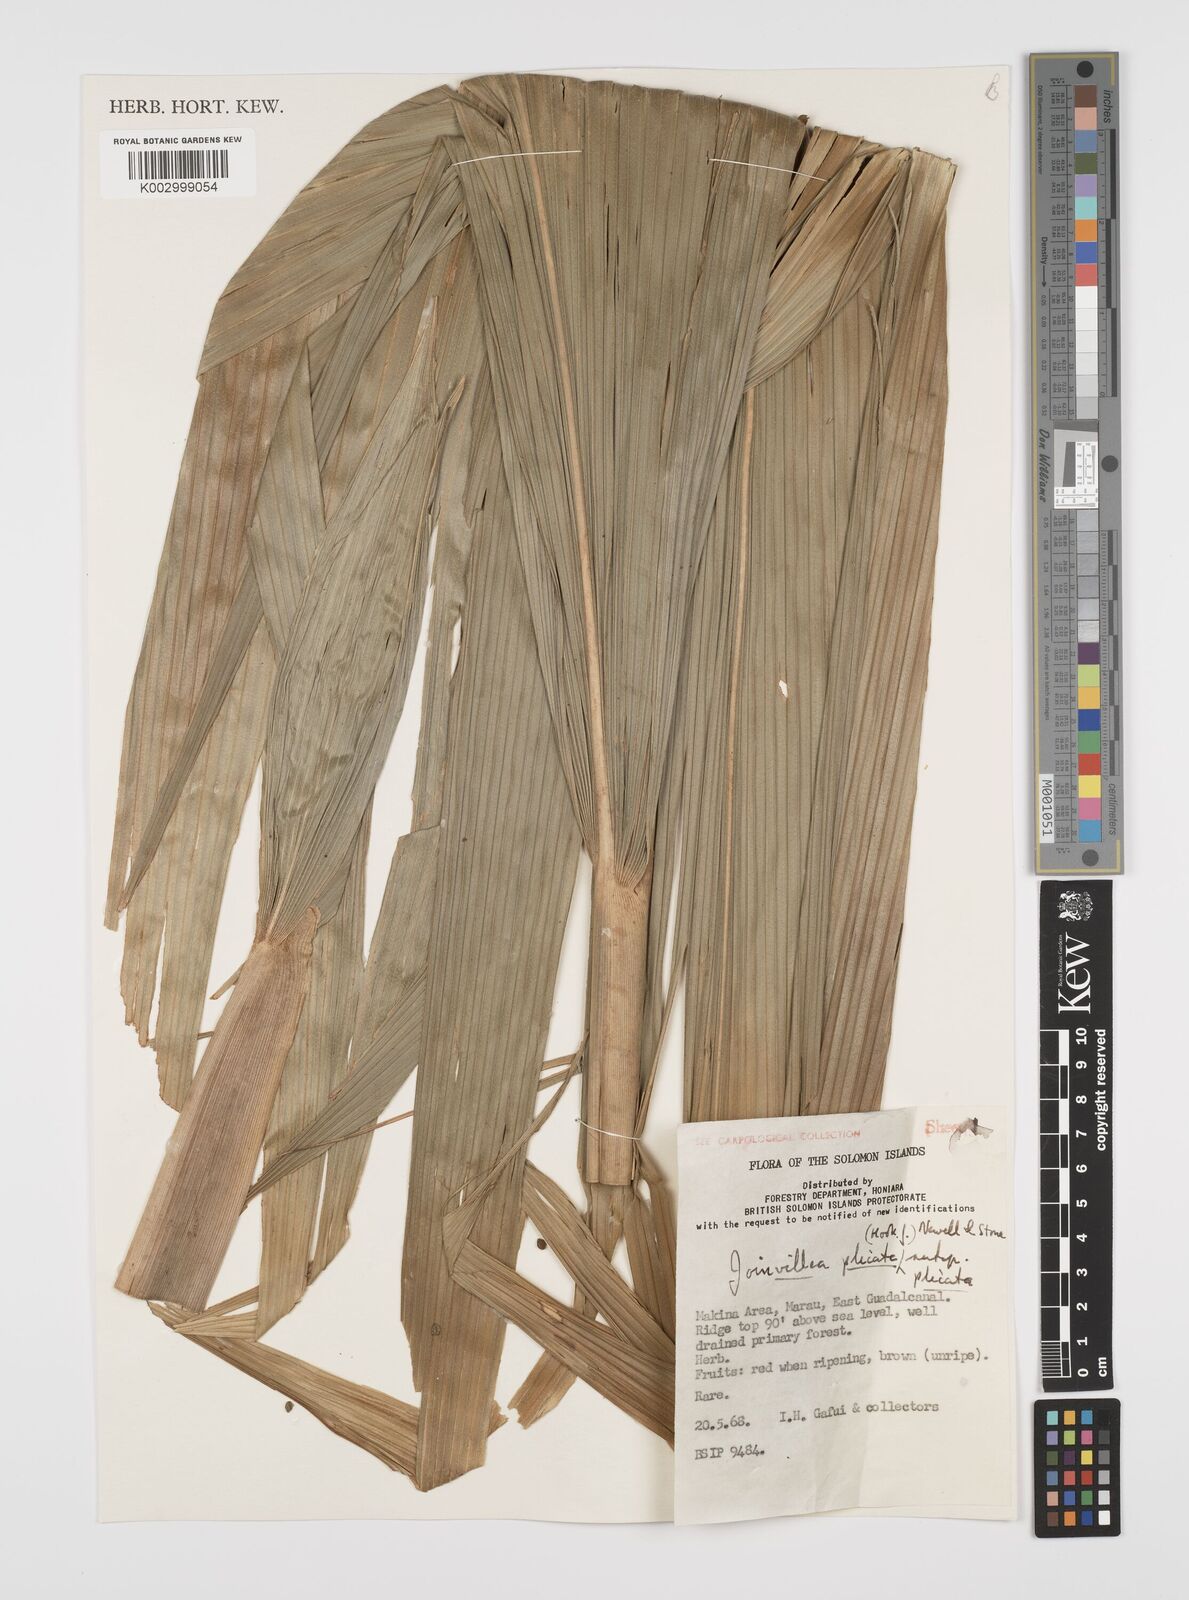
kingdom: Plantae
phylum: Tracheophyta
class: Liliopsida
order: Poales
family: Joinvilleaceae
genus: Joinvillea
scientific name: Joinvillea plicata
